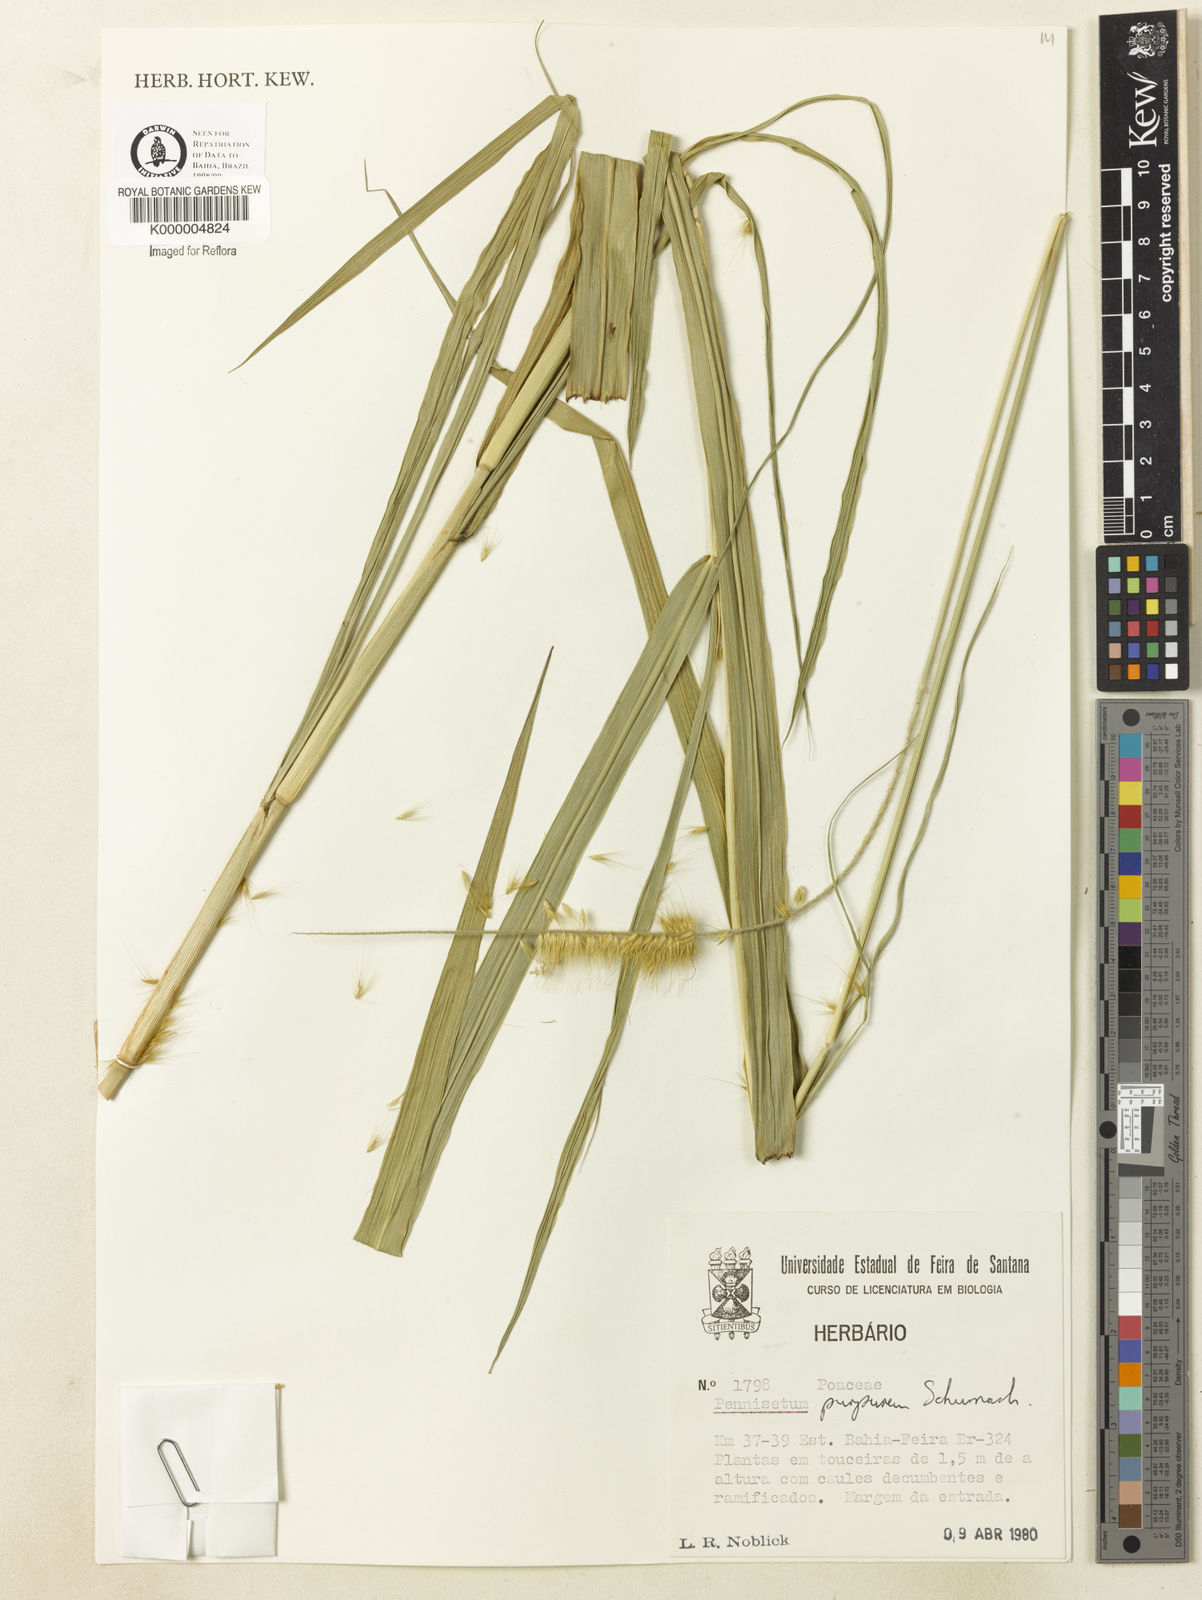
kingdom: Plantae
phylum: Tracheophyta
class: Liliopsida
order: Poales
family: Poaceae
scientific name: Poaceae
